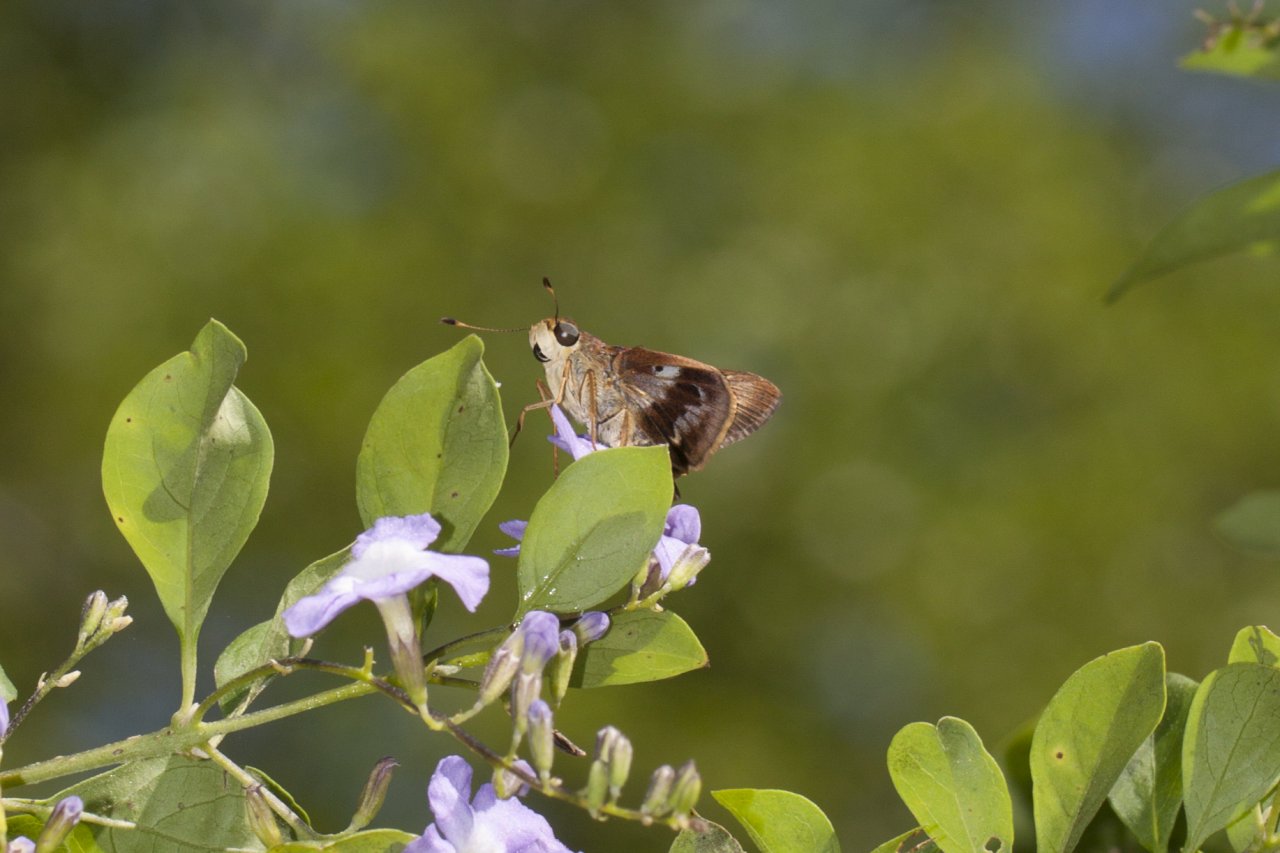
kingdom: Animalia
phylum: Arthropoda
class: Insecta
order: Lepidoptera
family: Hesperiidae
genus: Nyctelius
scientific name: Nyctelius nyctelius
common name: Violet-banded Skipper
